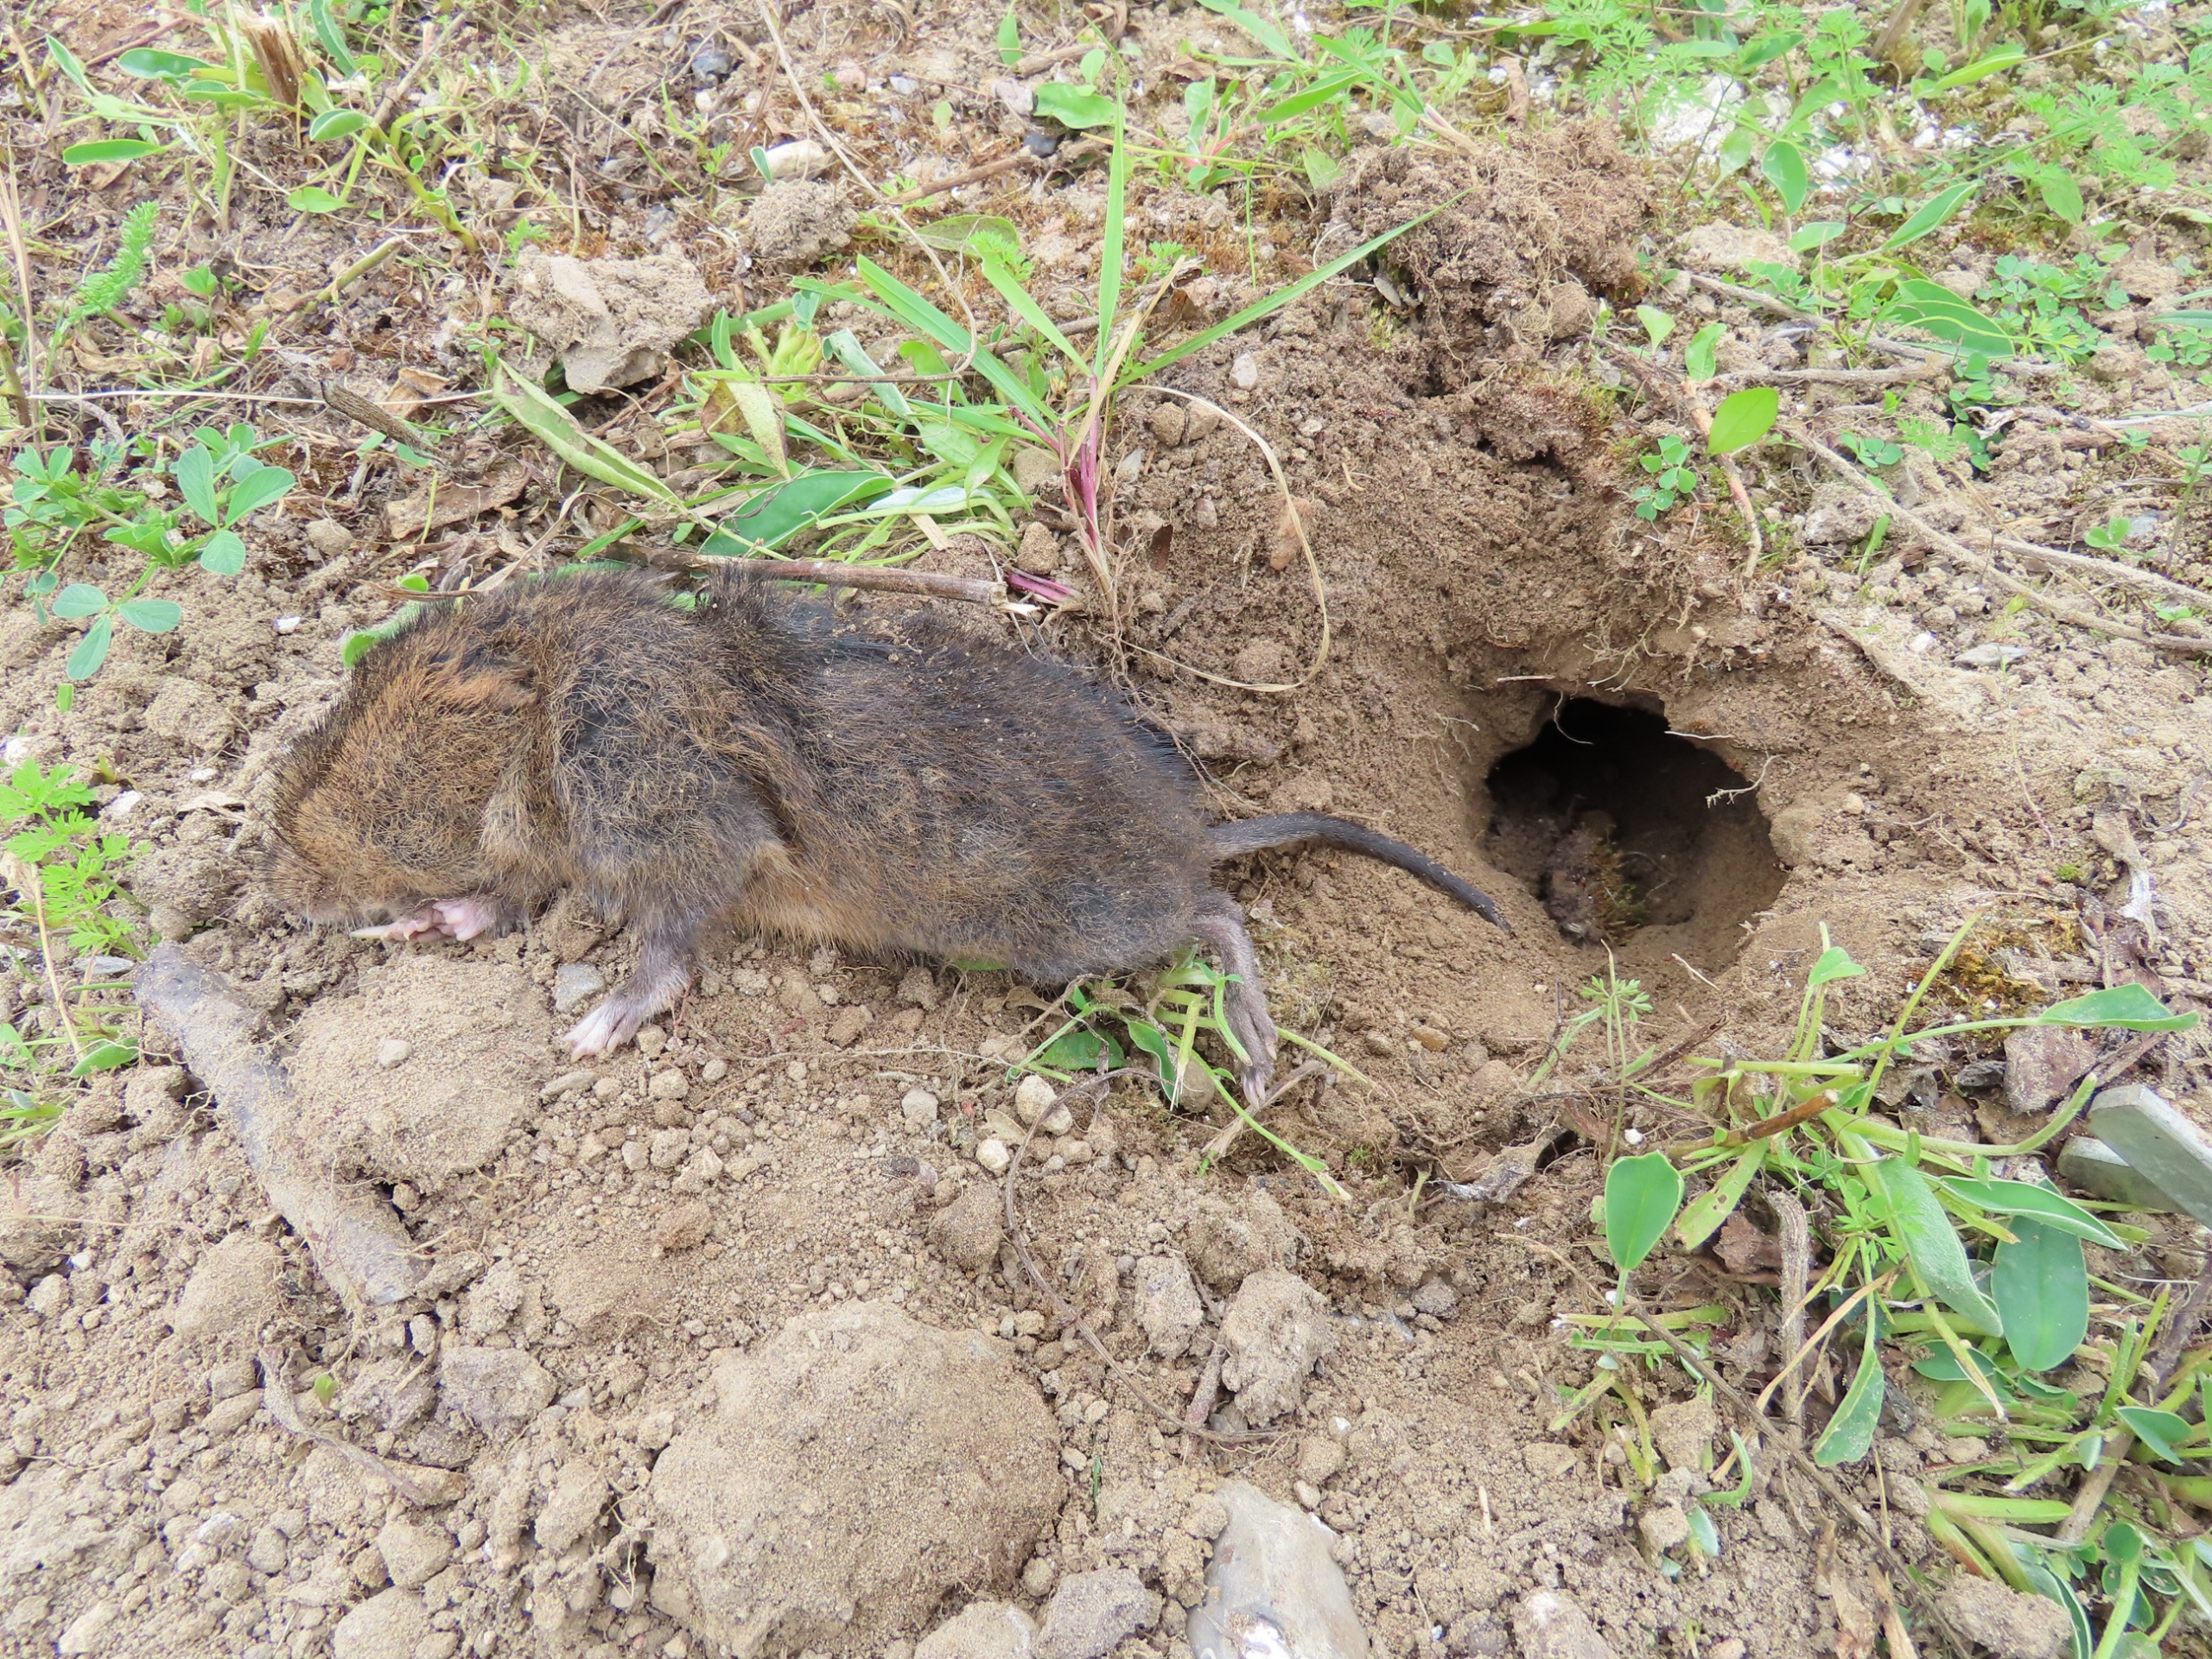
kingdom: Animalia
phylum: Chordata
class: Mammalia
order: Rodentia
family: Cricetidae
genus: Arvicola
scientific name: Arvicola amphibius
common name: Mosegris
